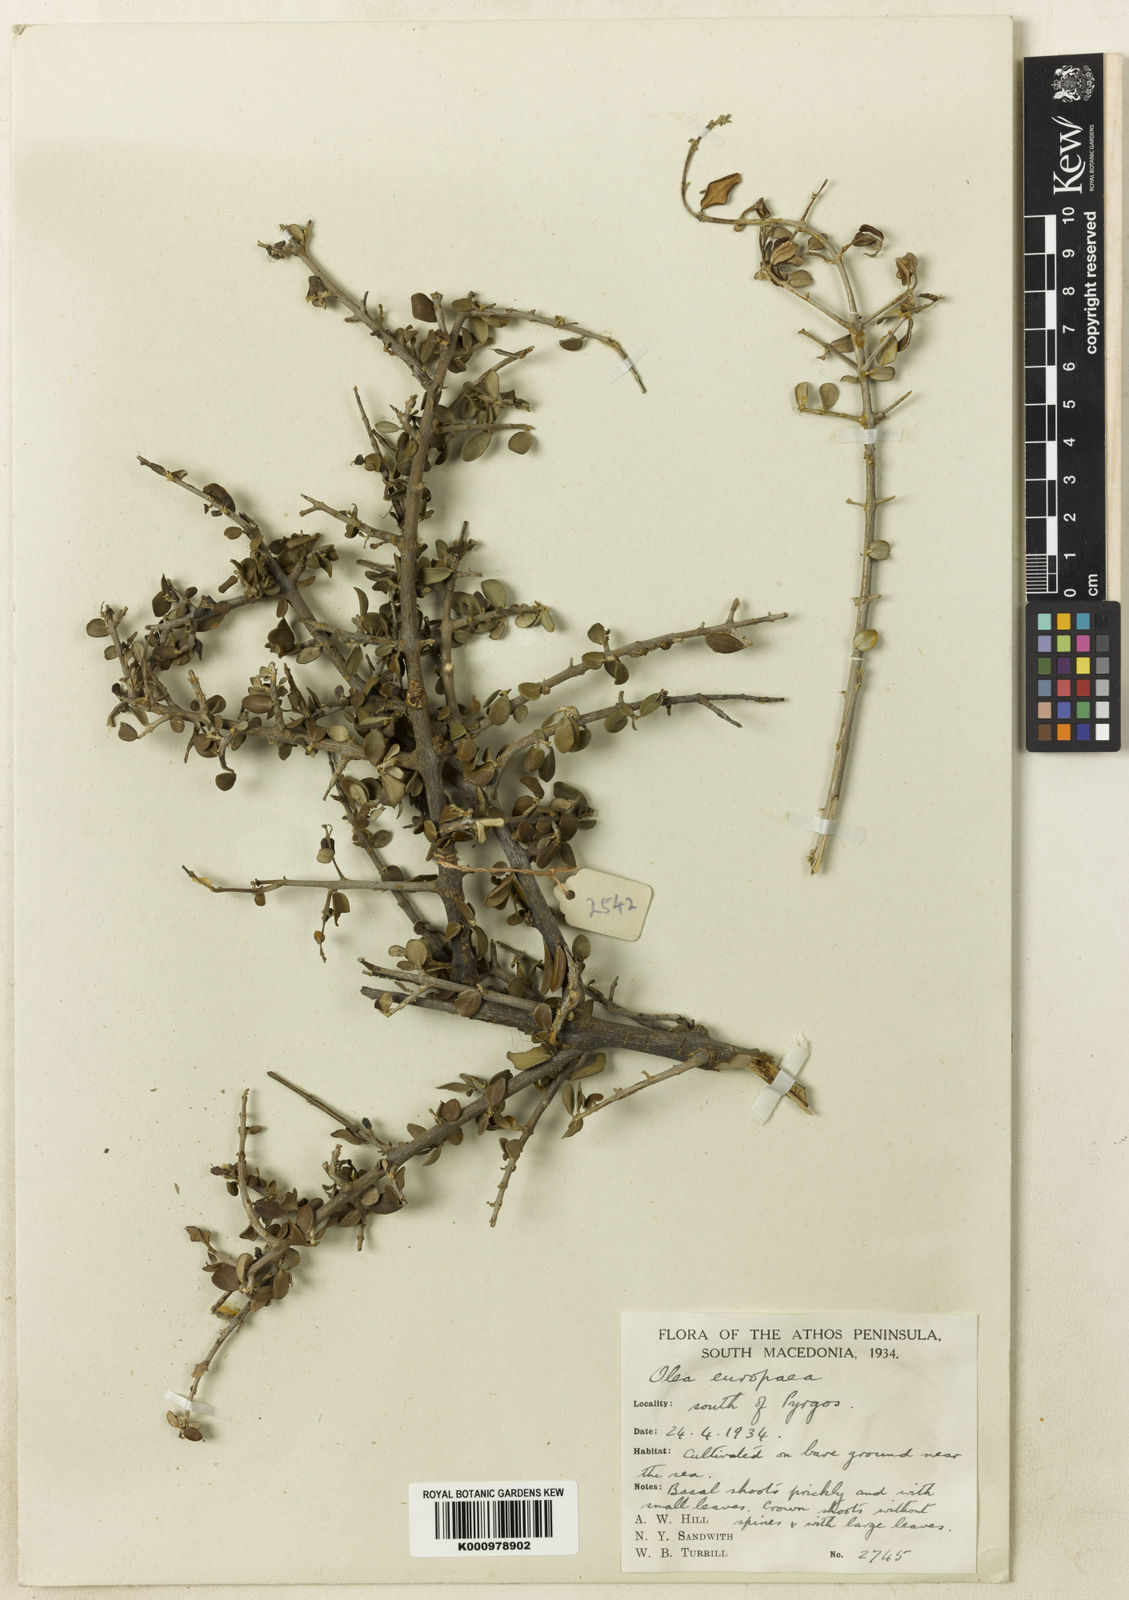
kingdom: Plantae
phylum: Tracheophyta
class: Magnoliopsida
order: Lamiales
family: Oleaceae
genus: Olea
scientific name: Olea europaea
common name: Olive
